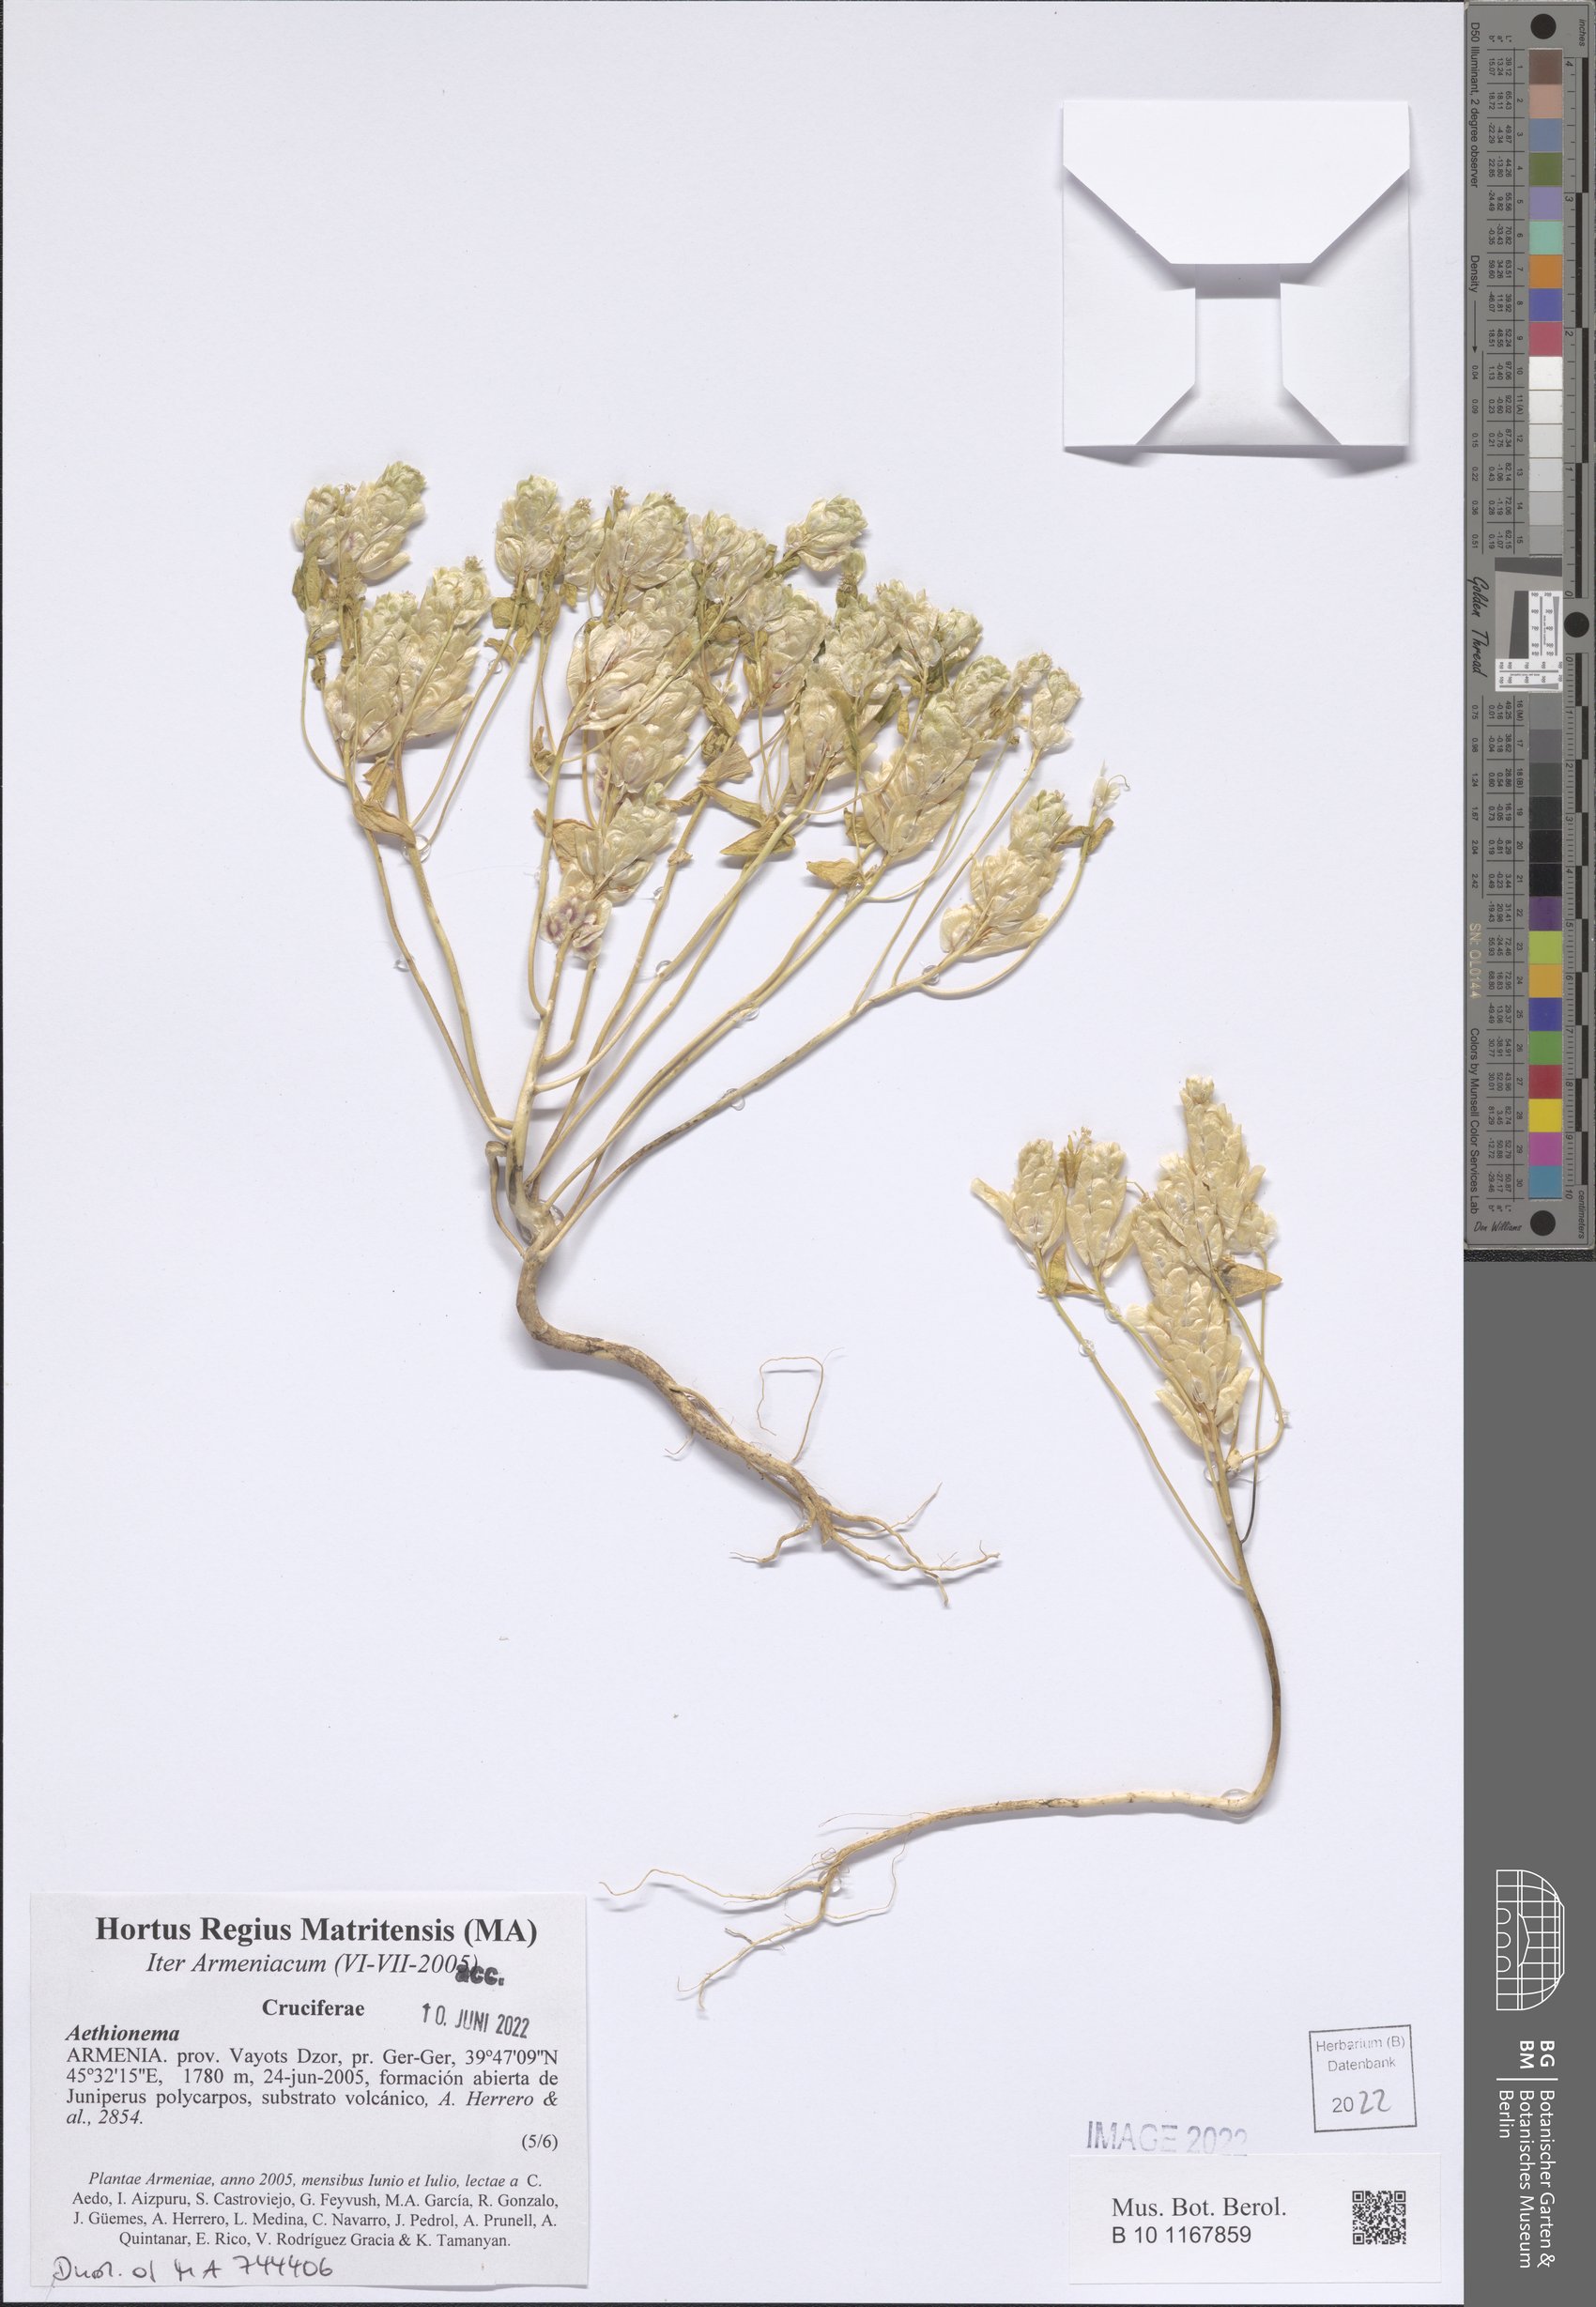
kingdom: Plantae
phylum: Tracheophyta
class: Magnoliopsida
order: Brassicales
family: Brassicaceae
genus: Aethionema
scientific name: Aethionema
